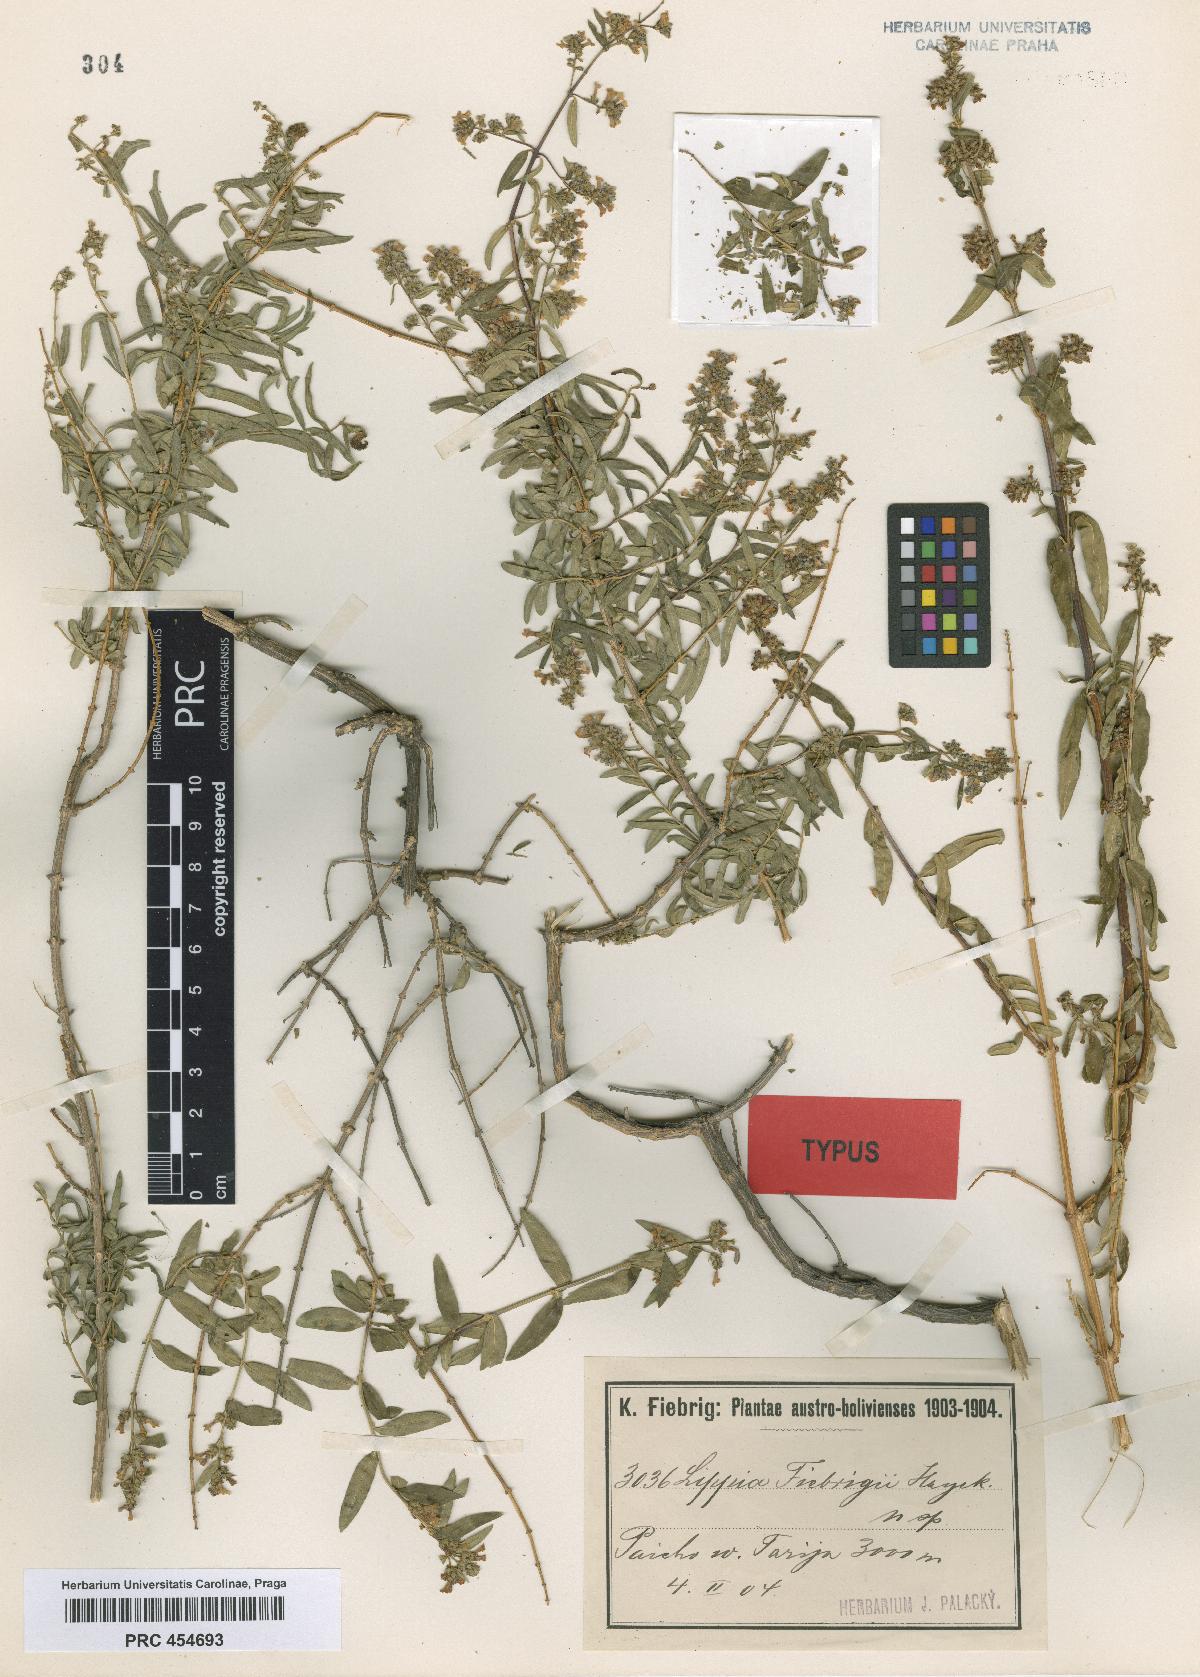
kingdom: Plantae
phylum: Tracheophyta
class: Magnoliopsida
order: Lamiales
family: Verbenaceae
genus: Aloysia
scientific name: Aloysia fiebrigii
